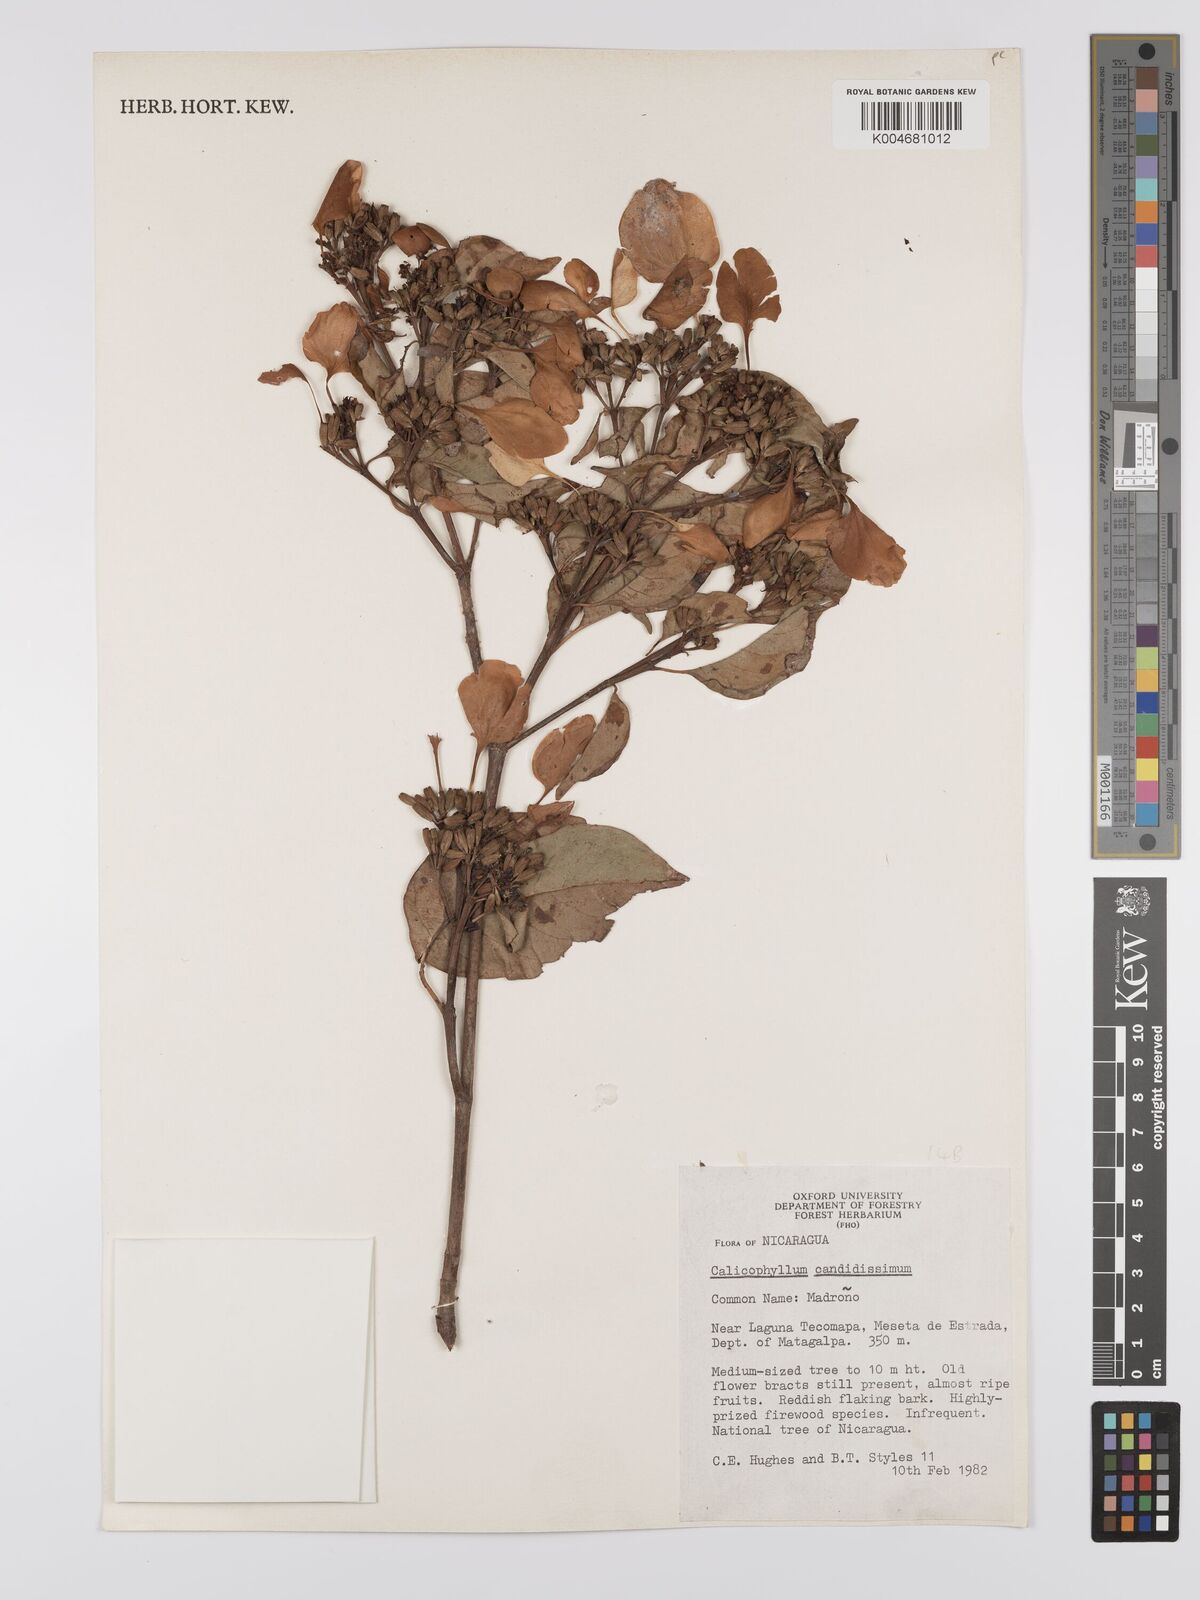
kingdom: Plantae
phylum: Tracheophyta
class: Magnoliopsida
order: Gentianales
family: Rubiaceae
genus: Calycophyllum
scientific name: Calycophyllum candidissimum
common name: Dagame
